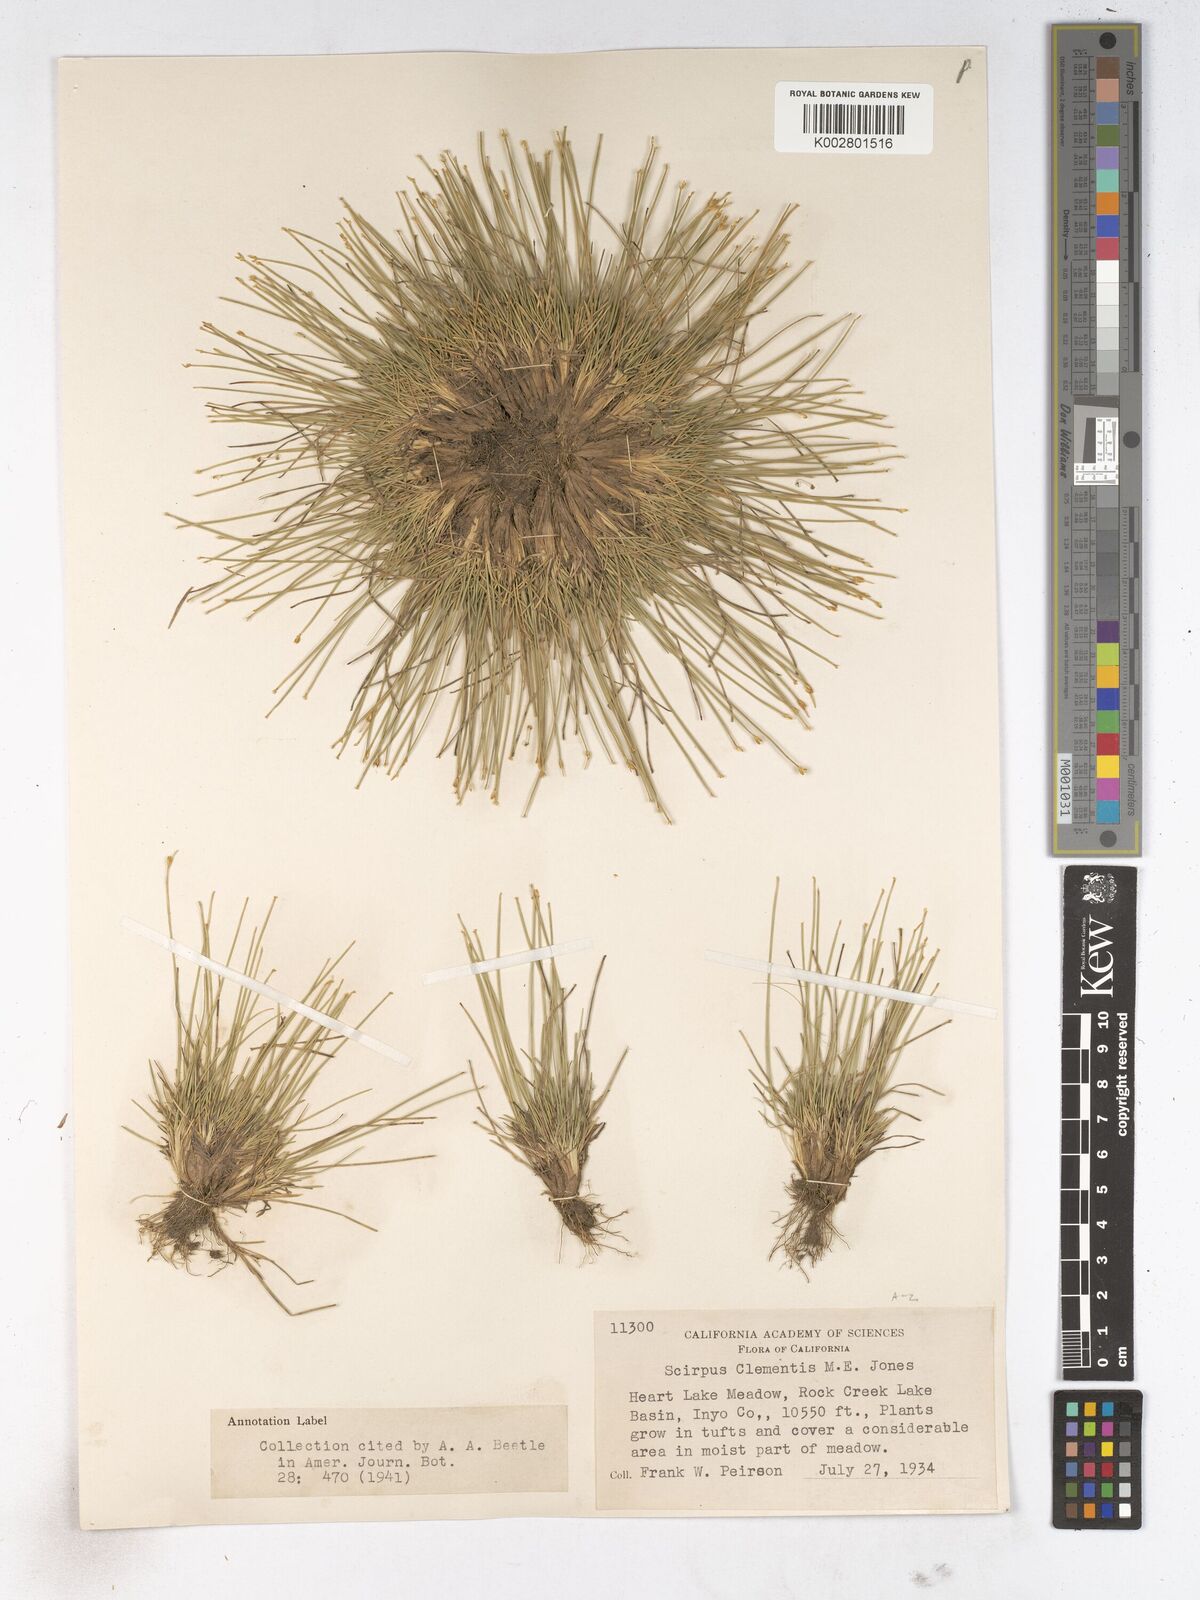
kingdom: Plantae
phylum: Tracheophyta
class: Liliopsida
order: Poales
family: Cyperaceae
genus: Trichophorum
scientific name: Trichophorum clementis
